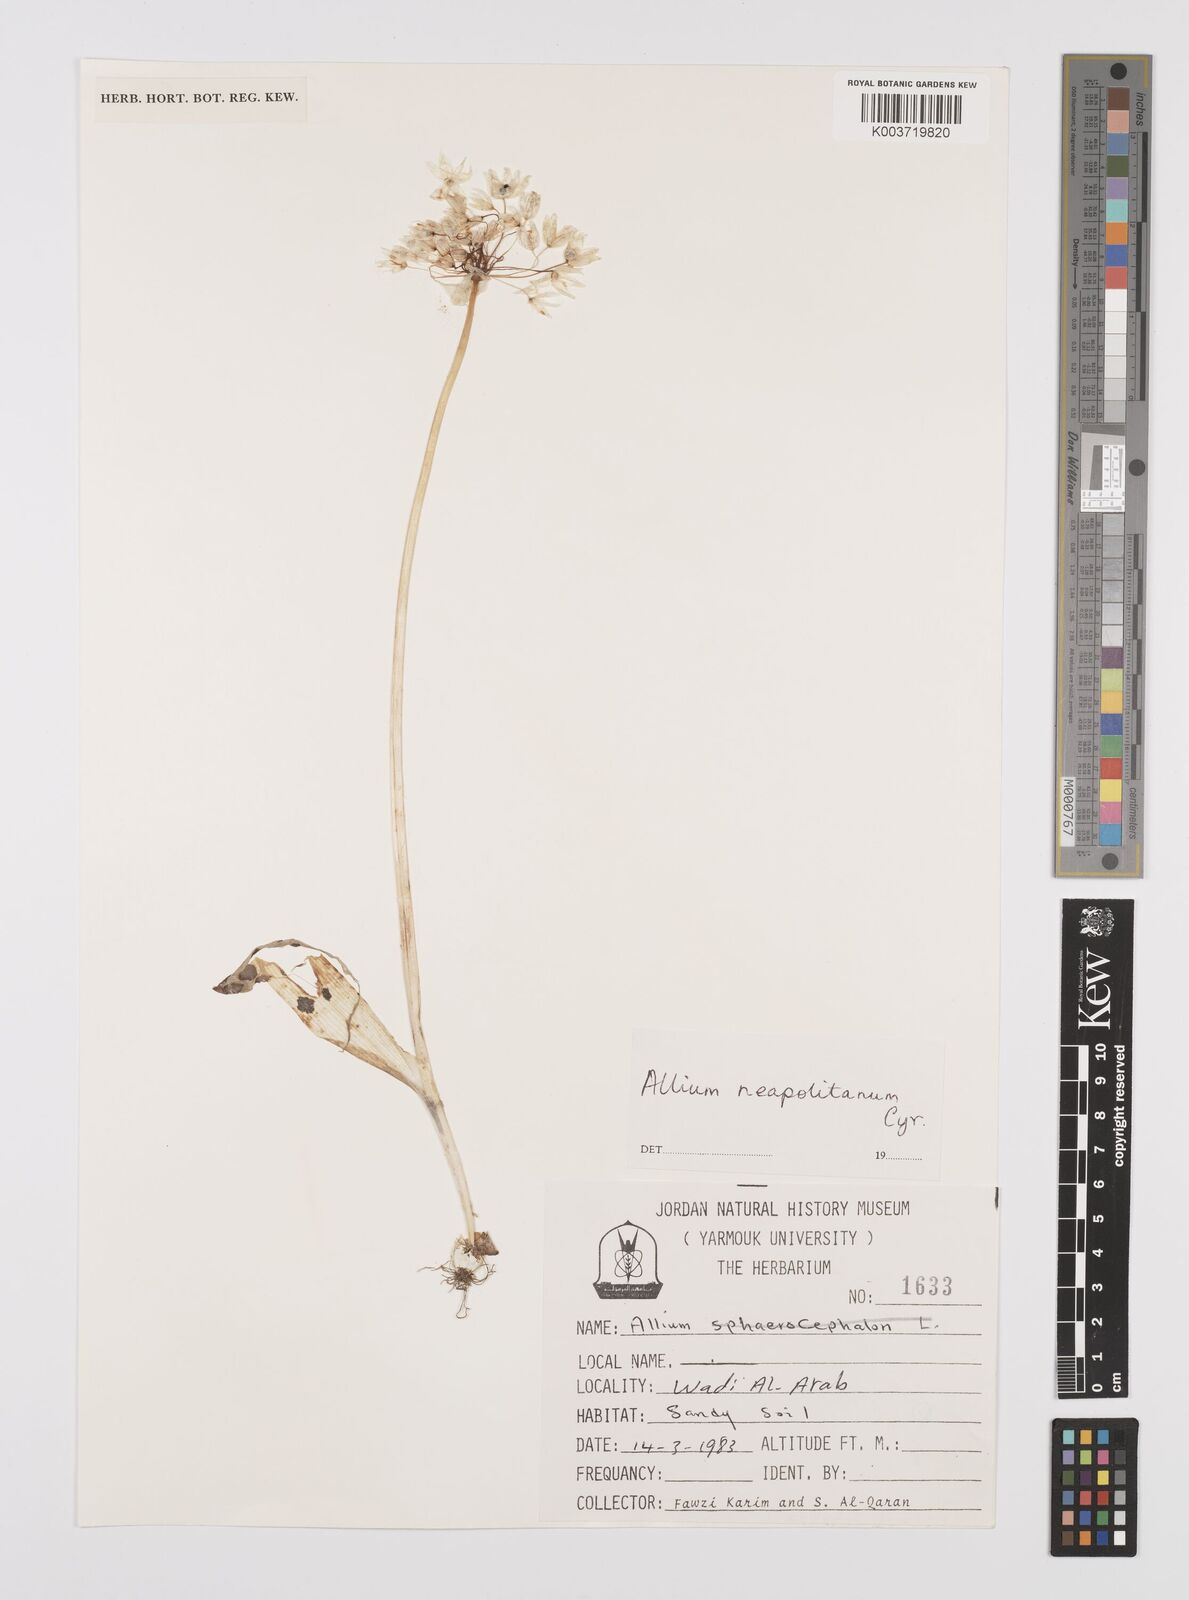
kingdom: Plantae
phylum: Tracheophyta
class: Liliopsida
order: Asparagales
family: Amaryllidaceae
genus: Allium
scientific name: Allium neapolitanum
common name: Neapolitan garlic
